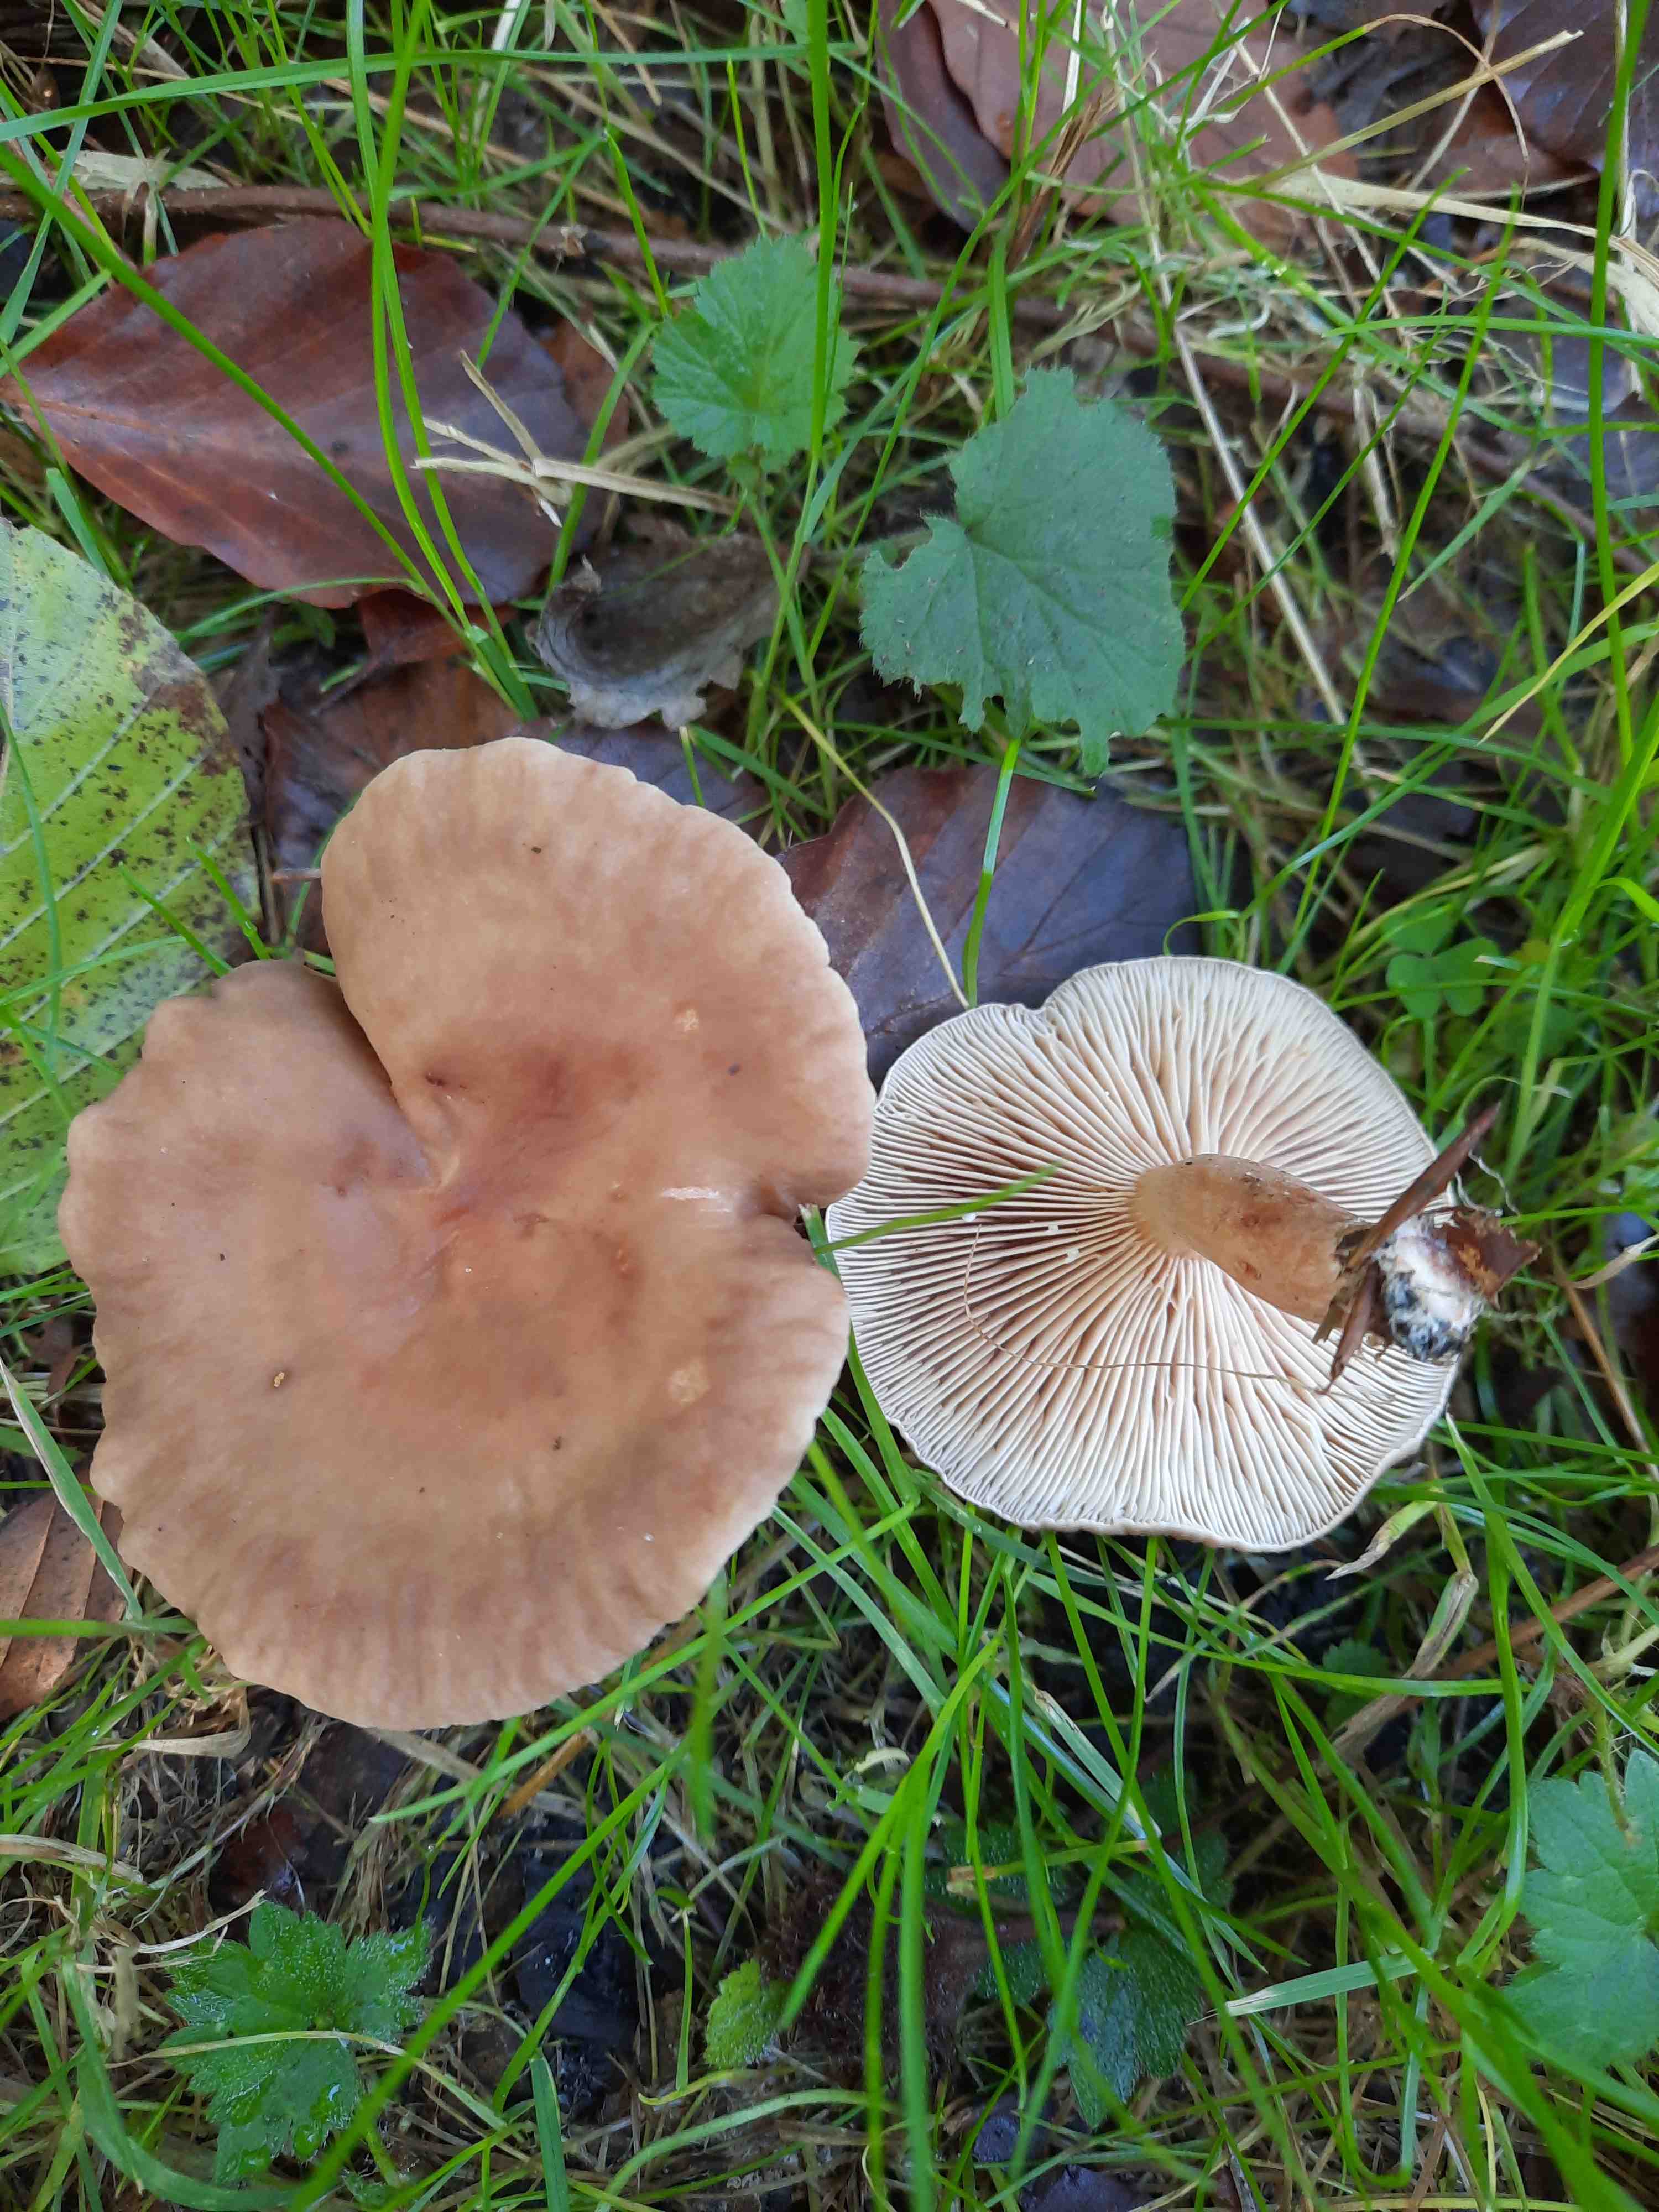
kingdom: Fungi
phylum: Basidiomycota
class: Agaricomycetes
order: Russulales
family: Russulaceae
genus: Lactarius
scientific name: Lactarius subdulcis
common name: sødlig mælkehat
